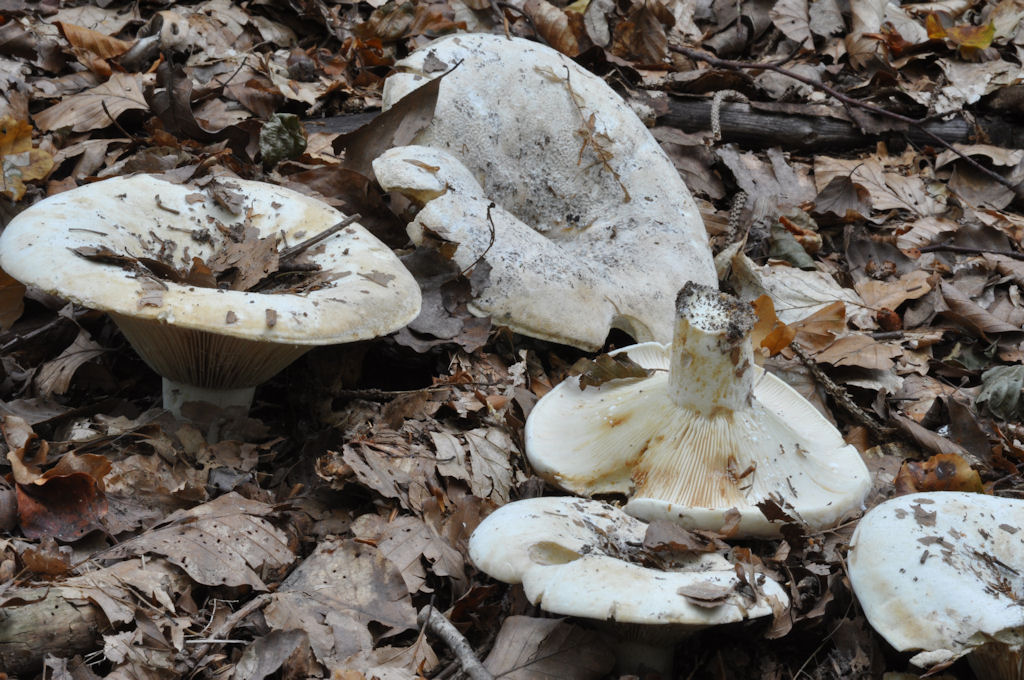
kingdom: Fungi
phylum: Basidiomycota
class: Agaricomycetes
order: Russulales
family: Russulaceae
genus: Lactifluus
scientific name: Lactifluus vellereus
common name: hvidfiltet mælkehat
